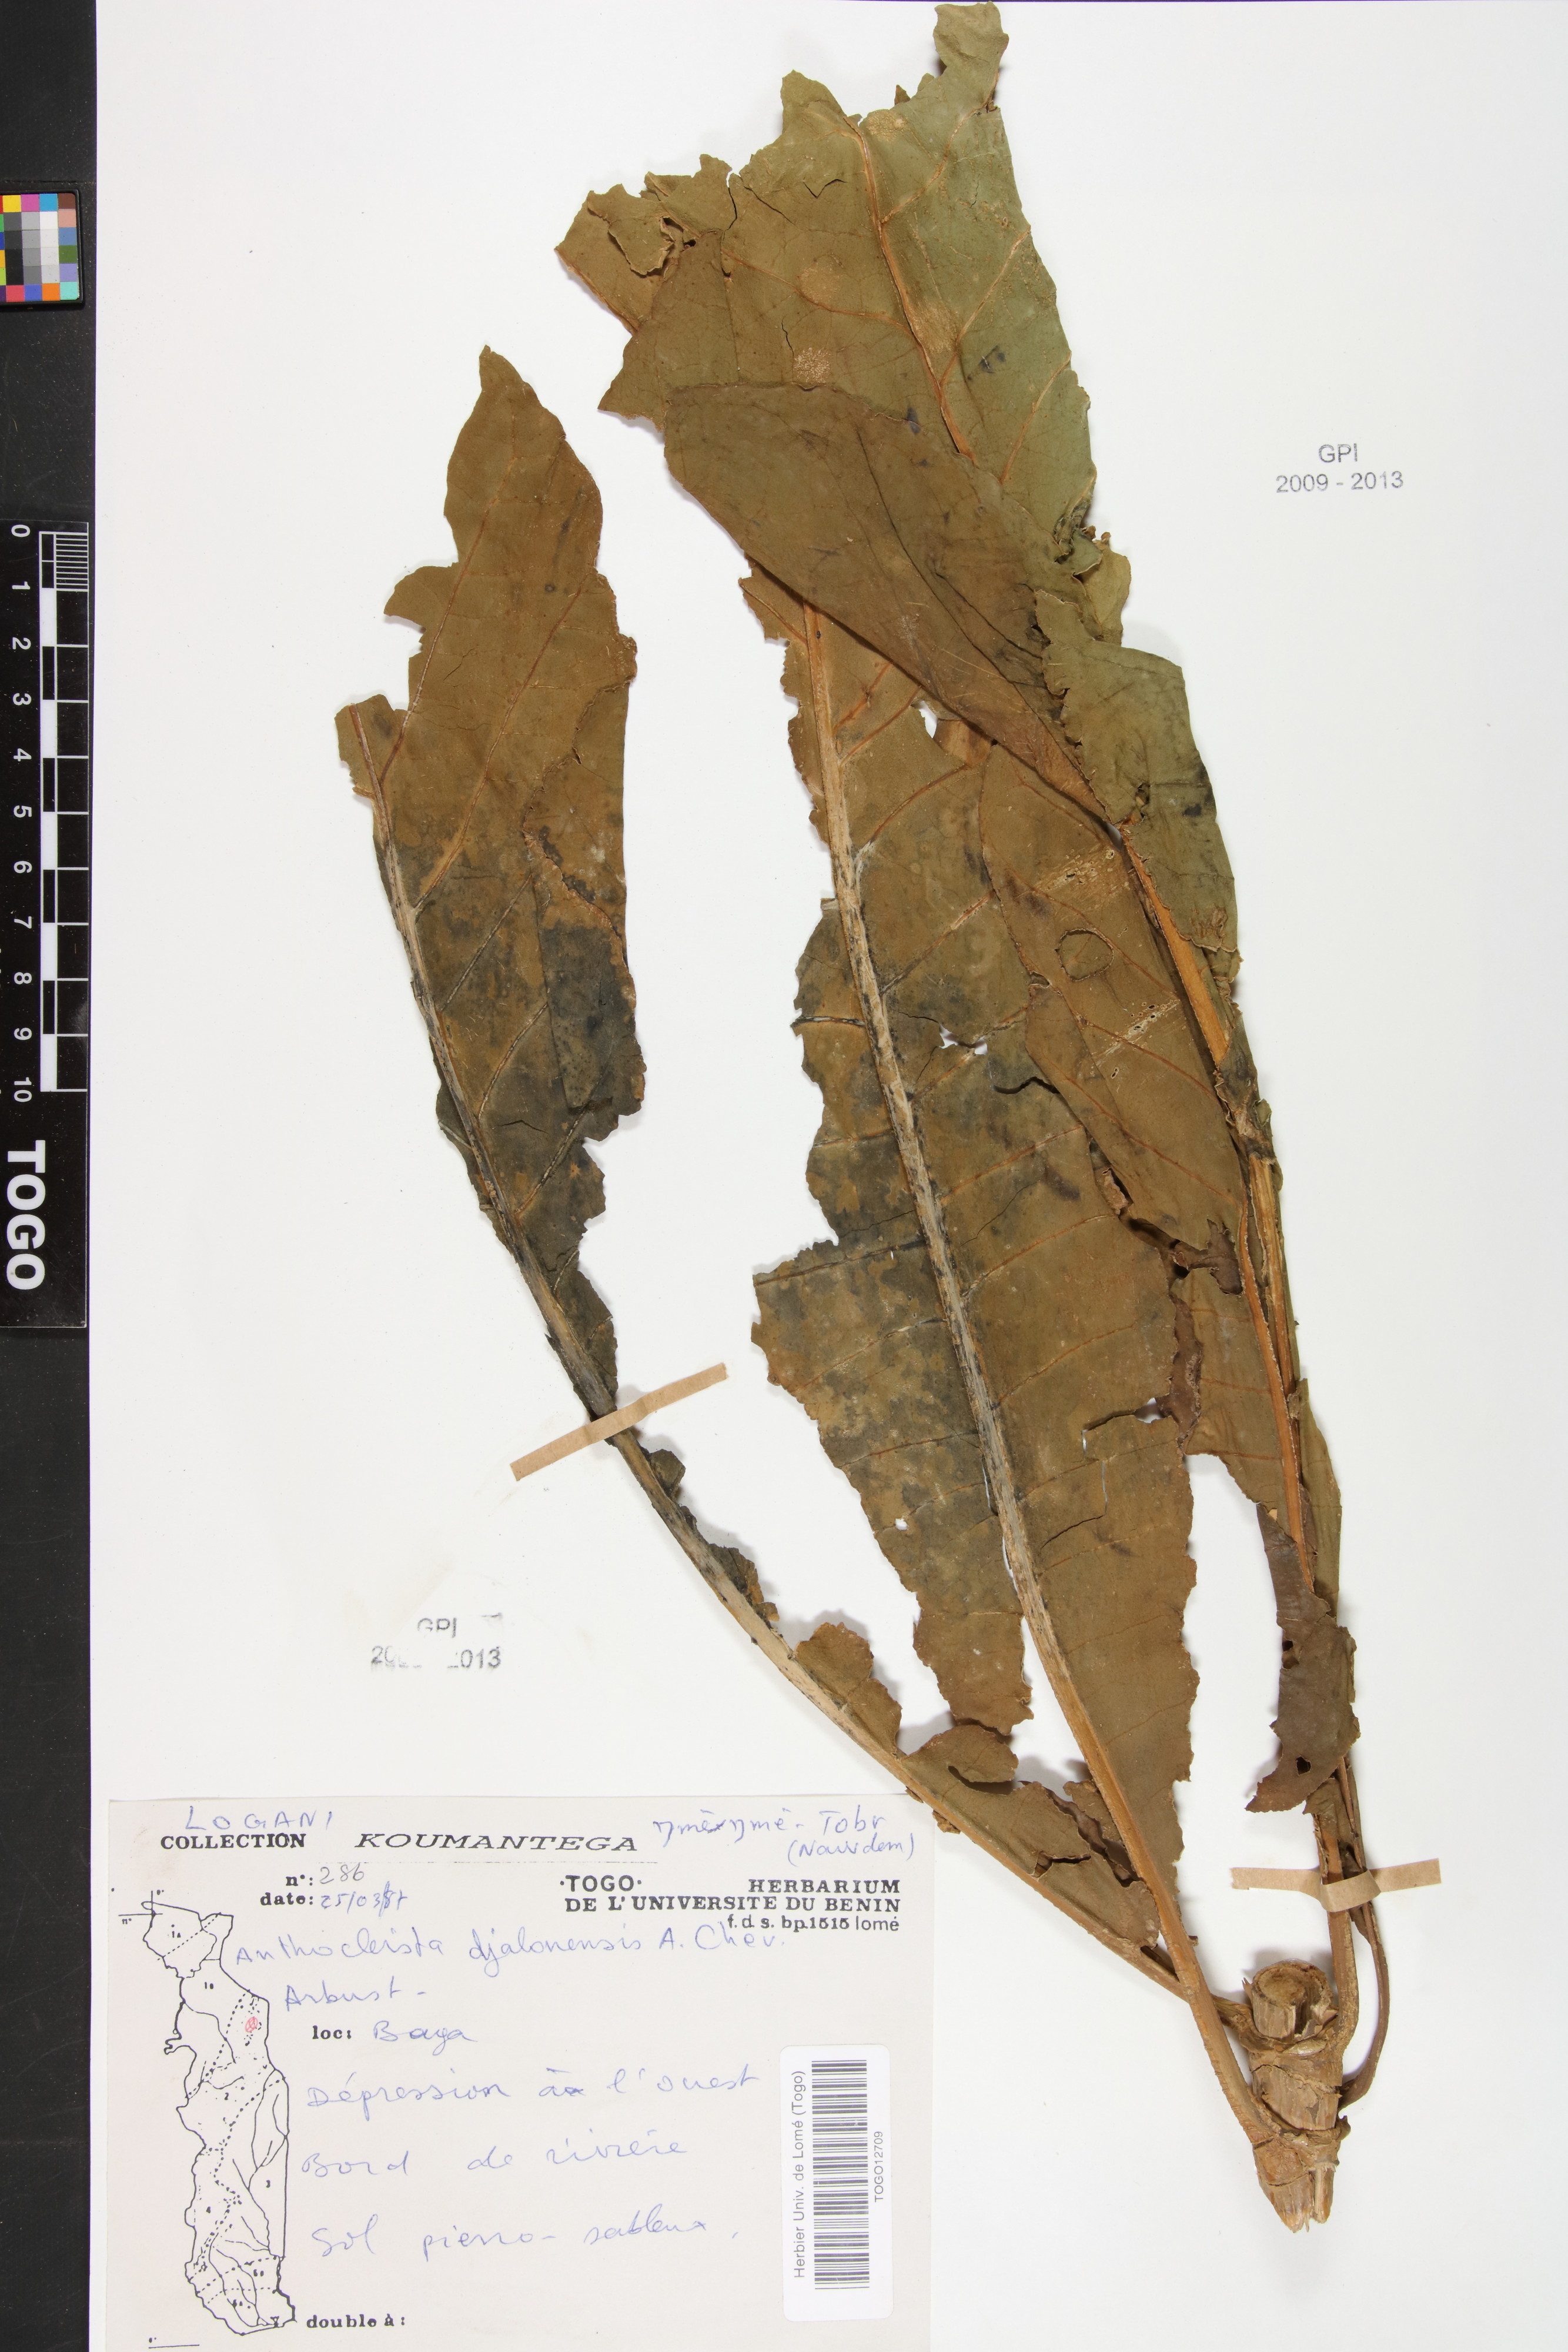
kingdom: Plantae
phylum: Tracheophyta
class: Magnoliopsida
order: Gentianales
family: Gentianaceae
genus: Anthocleista
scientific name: Anthocleista djalonensis
